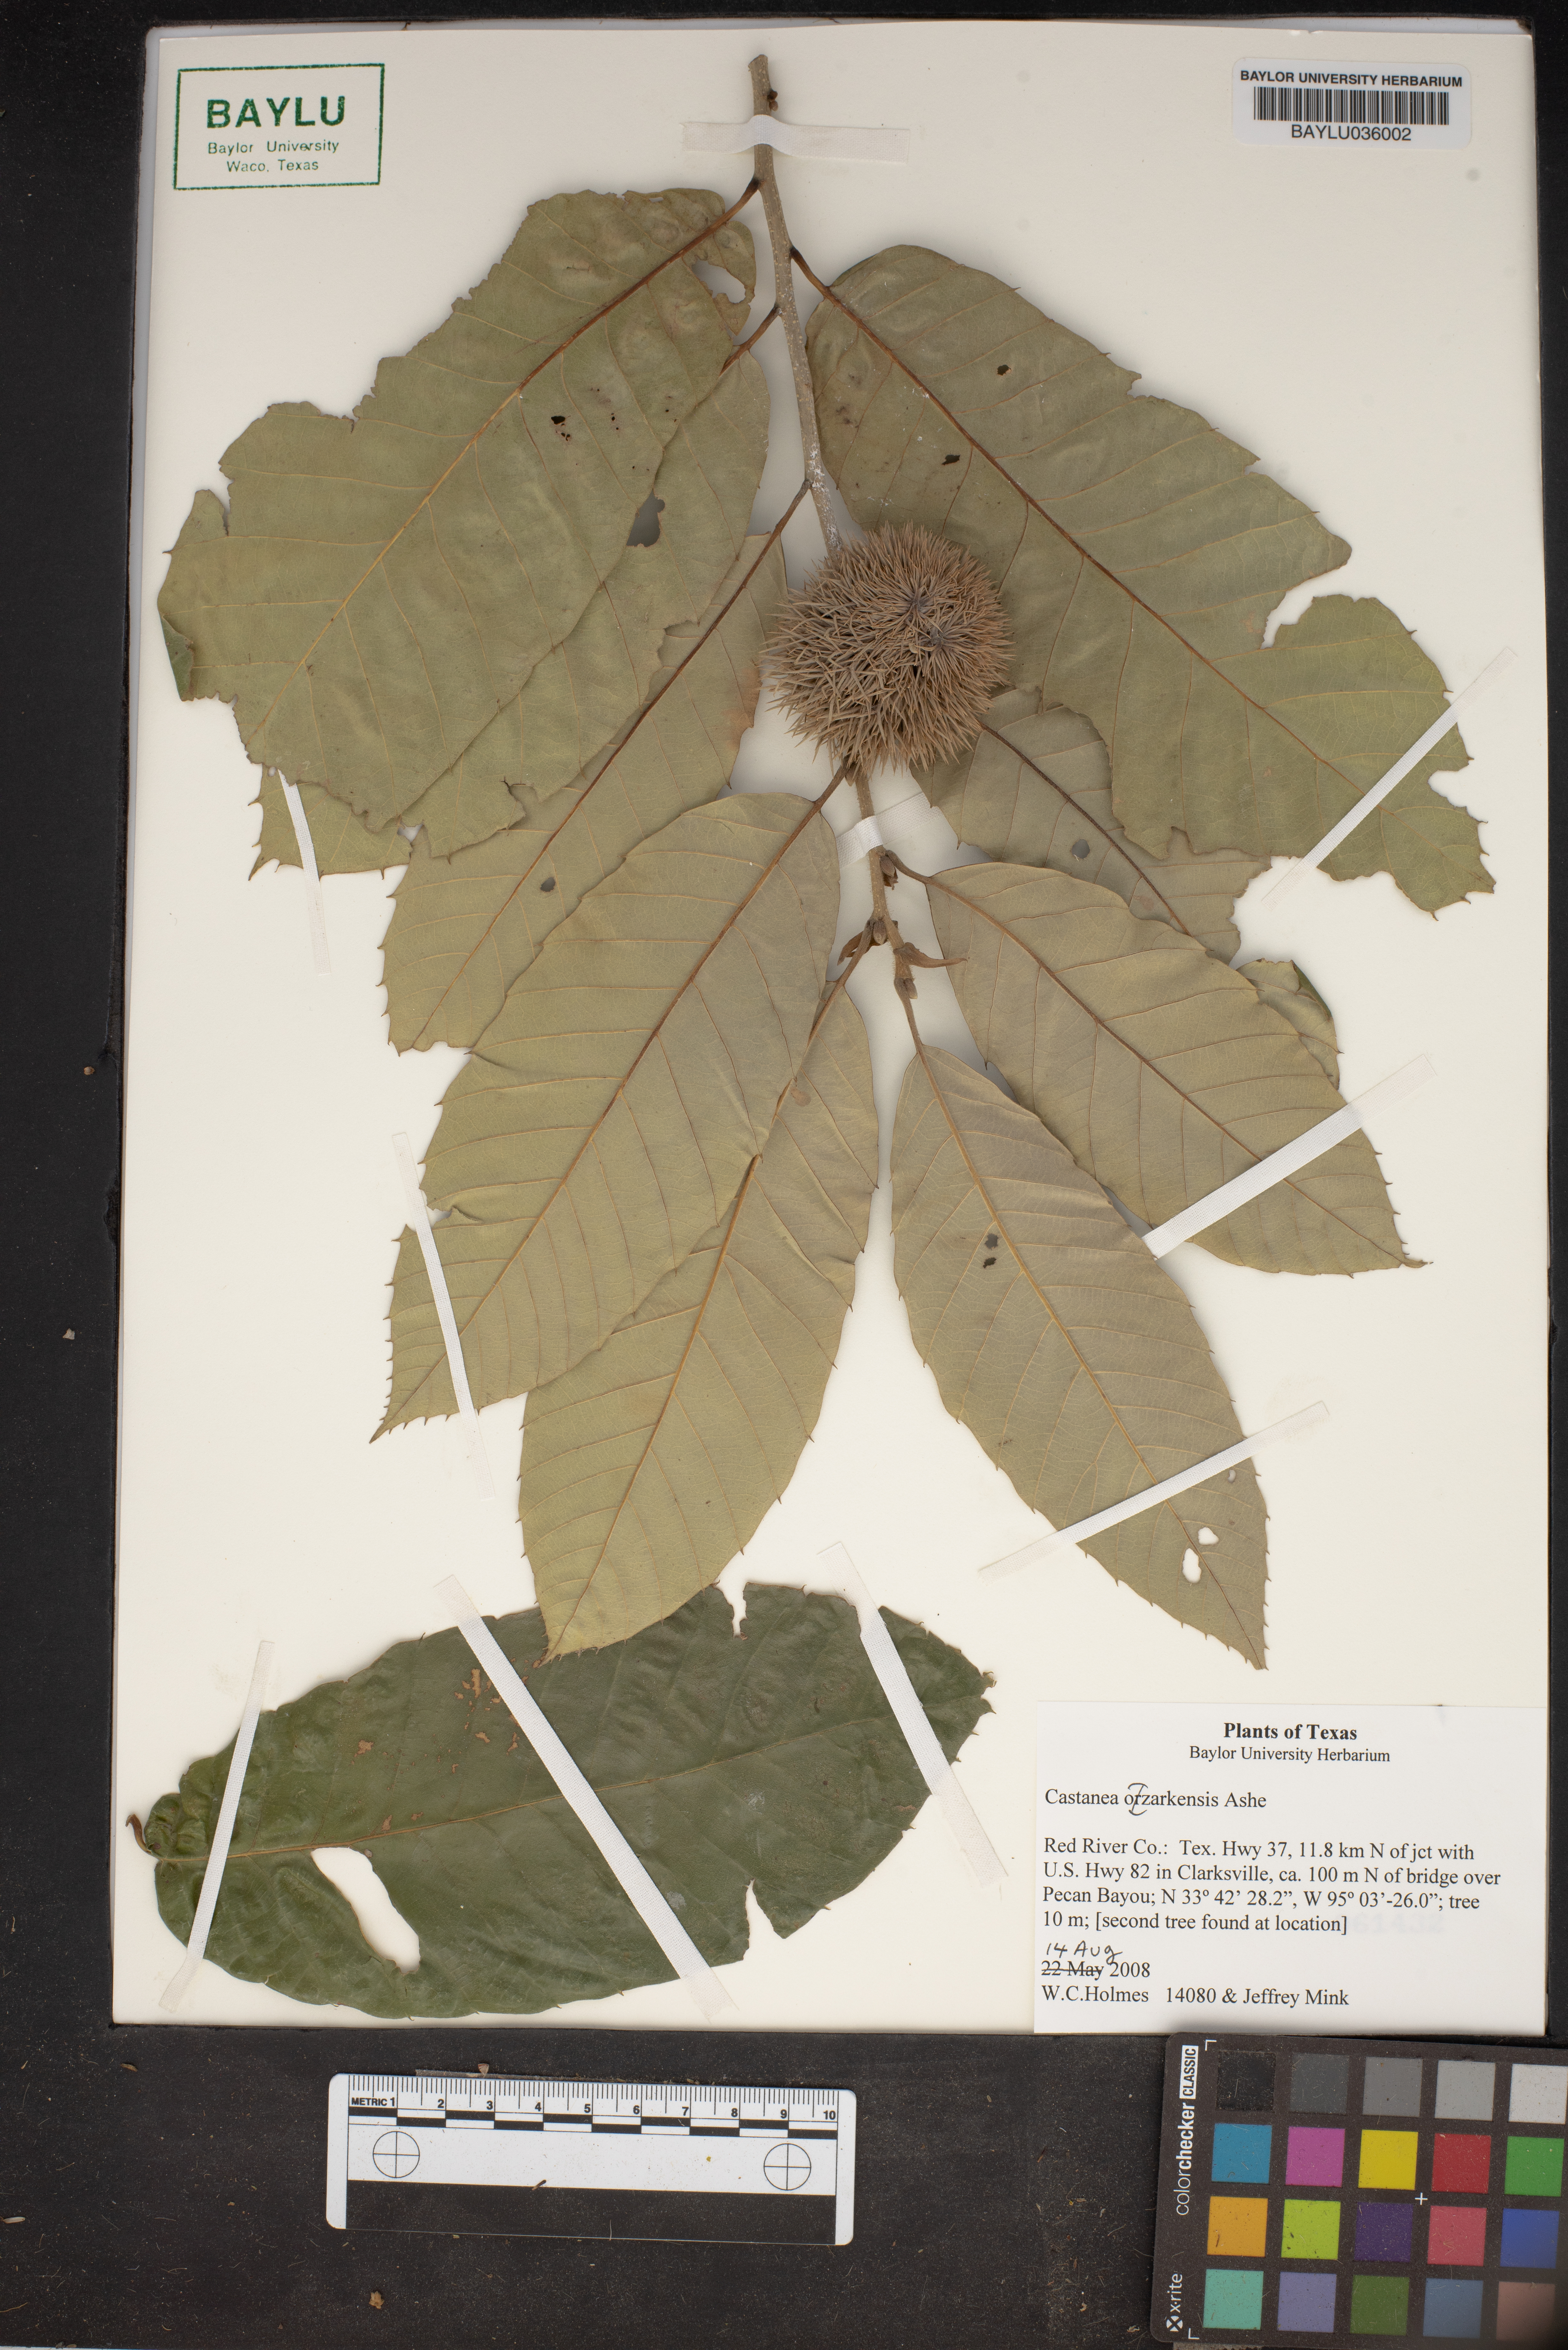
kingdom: Plantae
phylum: Tracheophyta
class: Magnoliopsida
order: Fagales
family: Fagaceae
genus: Castanea
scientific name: Castanea ozarkensis
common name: Ozark chinkapin
